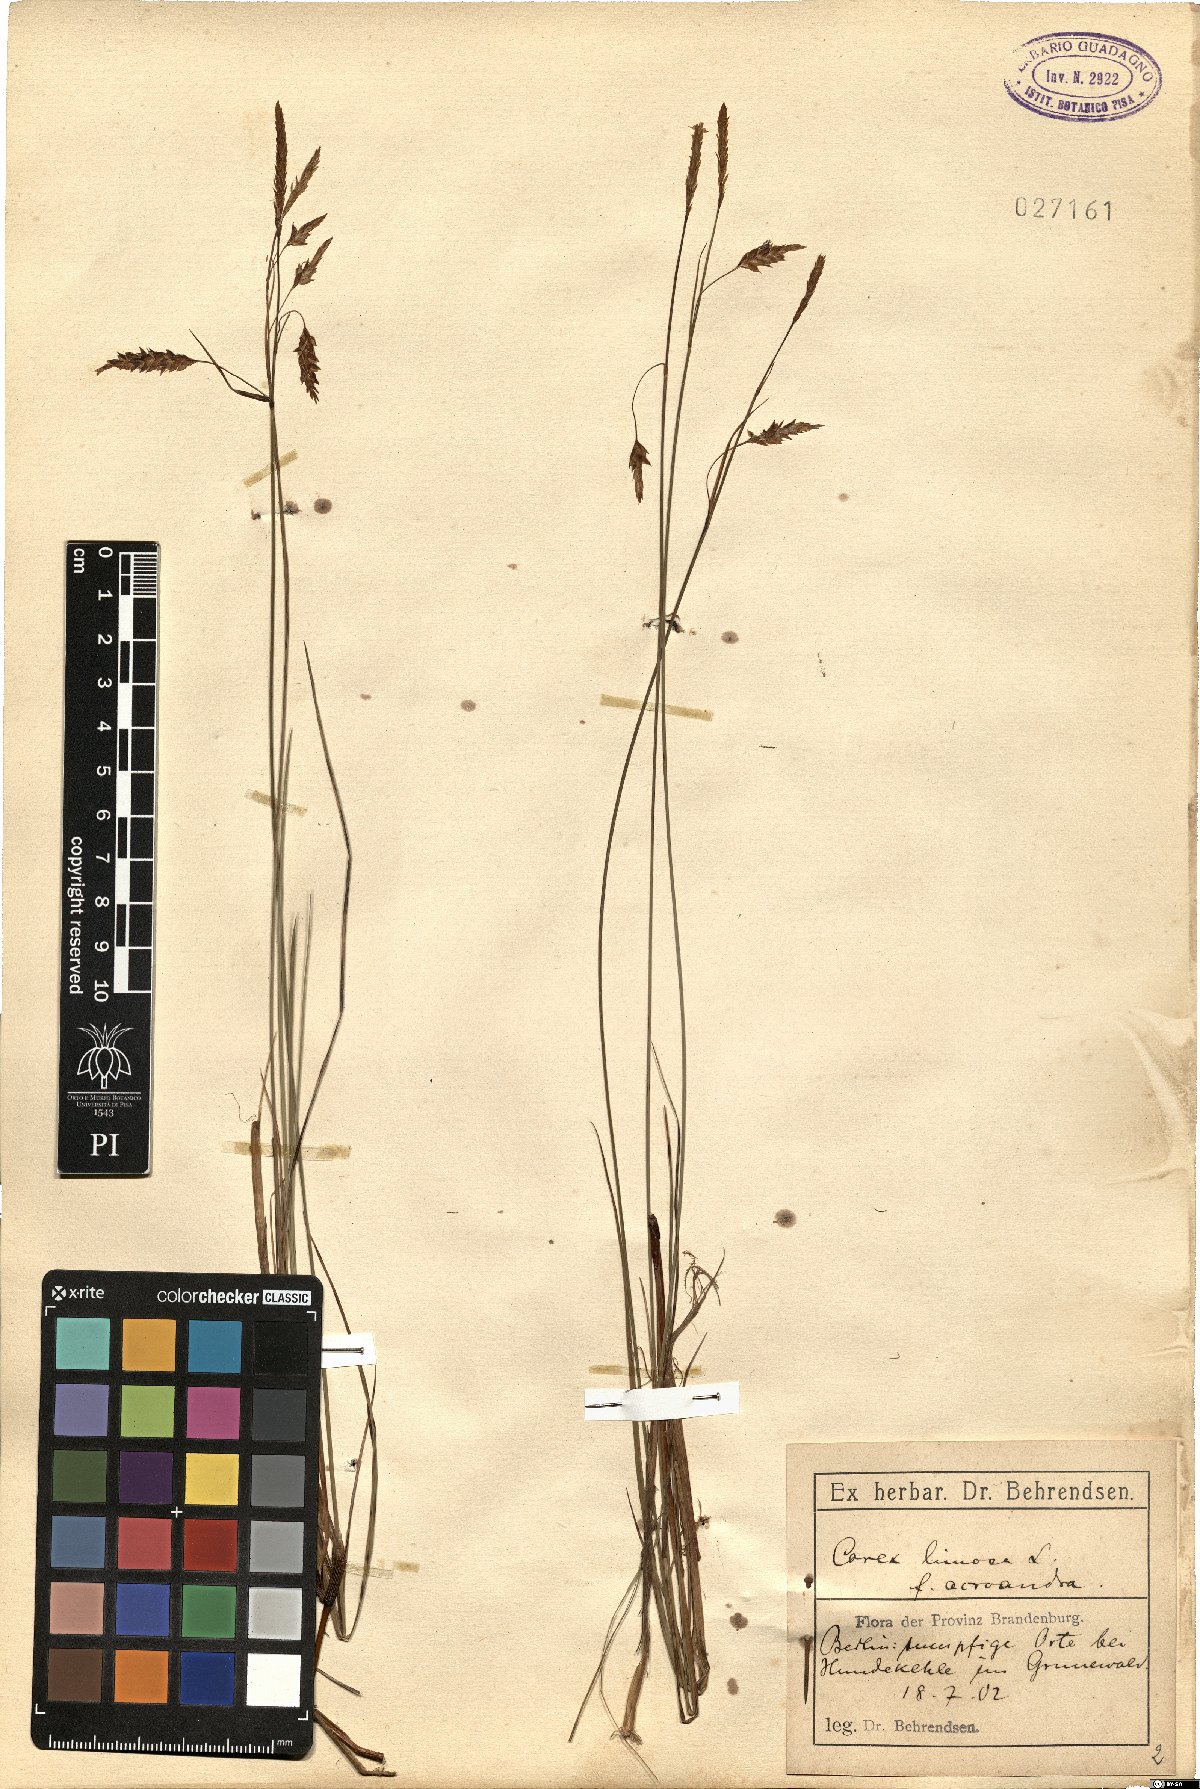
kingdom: Plantae
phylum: Tracheophyta
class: Liliopsida
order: Poales
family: Cyperaceae
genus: Carex
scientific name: Carex limosa
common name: Bog sedge
